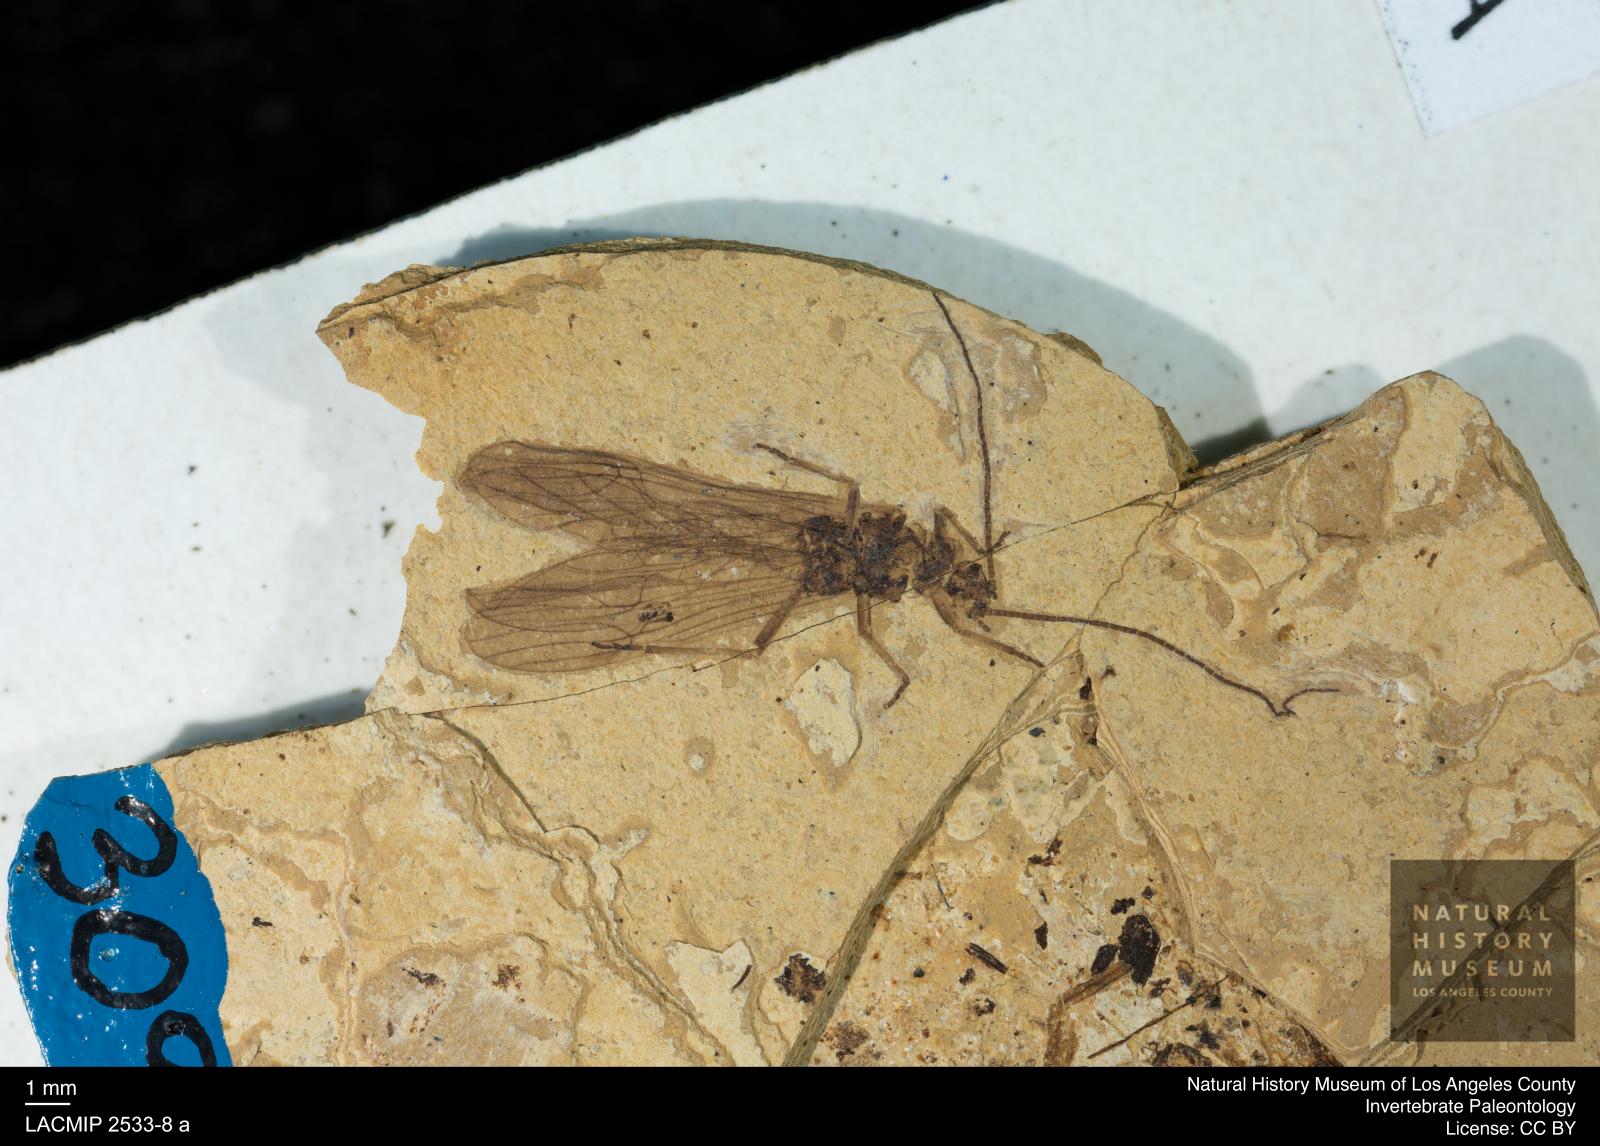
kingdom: Animalia
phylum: Arthropoda
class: Insecta
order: Plecoptera
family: Leuctridae
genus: Leuctra
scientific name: Leuctra antiqua
